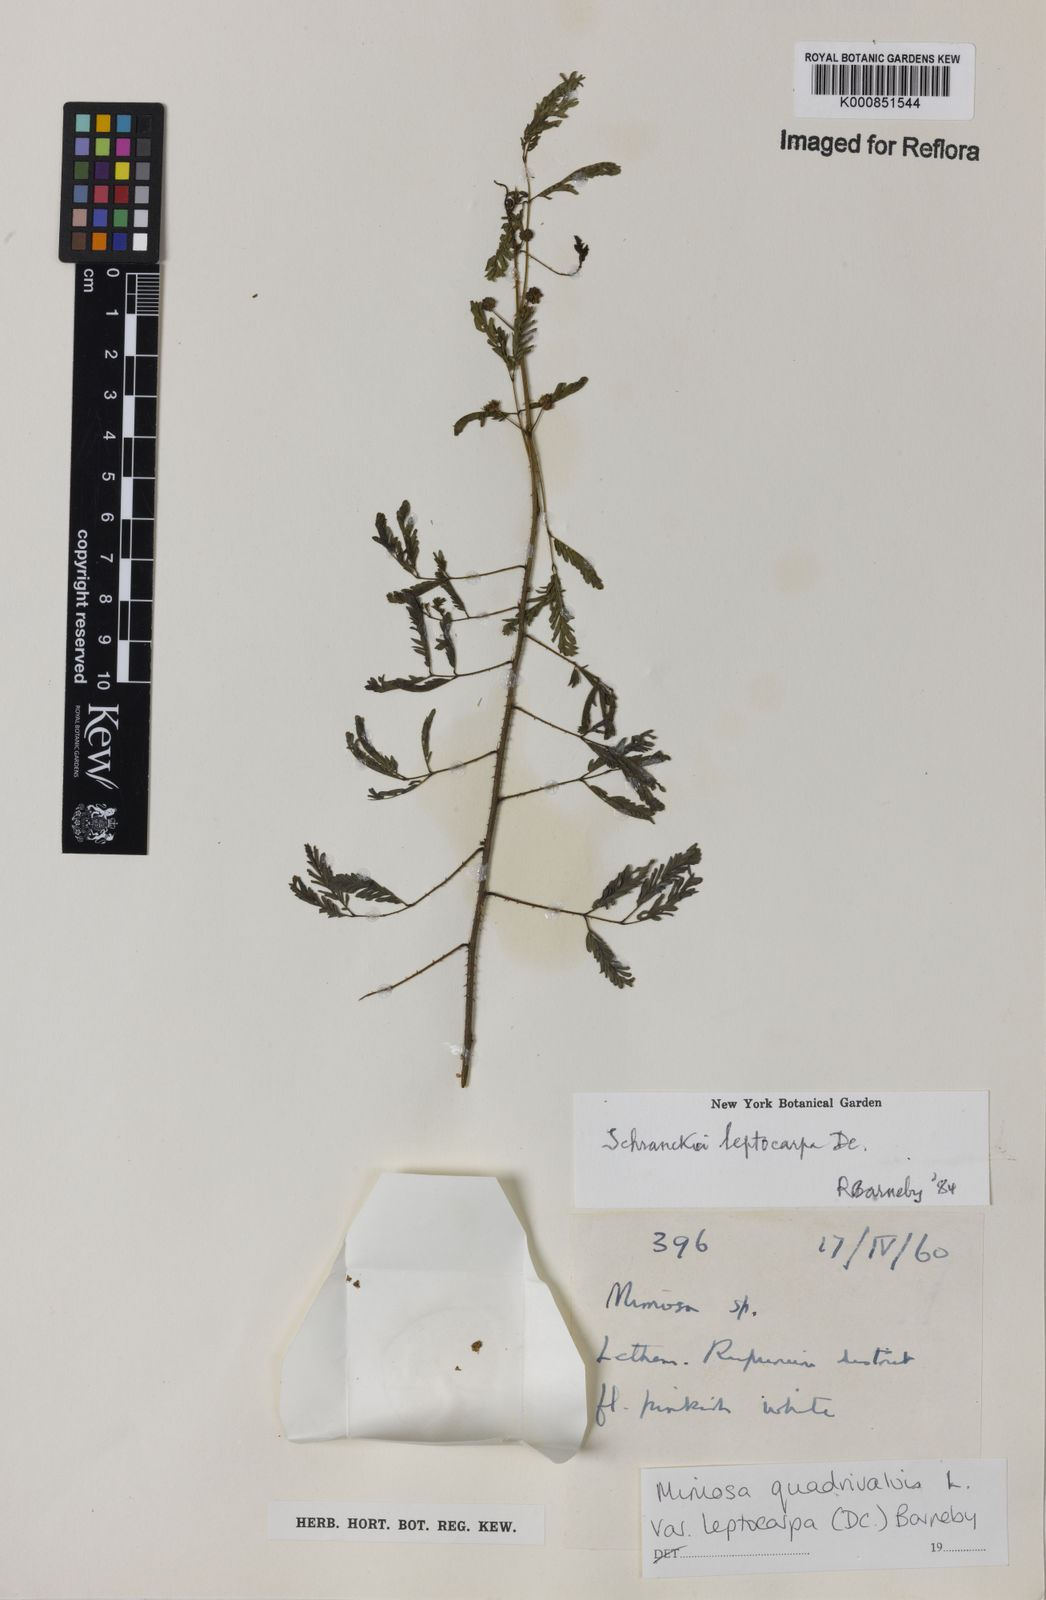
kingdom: Plantae
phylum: Tracheophyta
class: Magnoliopsida
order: Fabales
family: Fabaceae
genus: Mimosa
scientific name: Mimosa candollei
